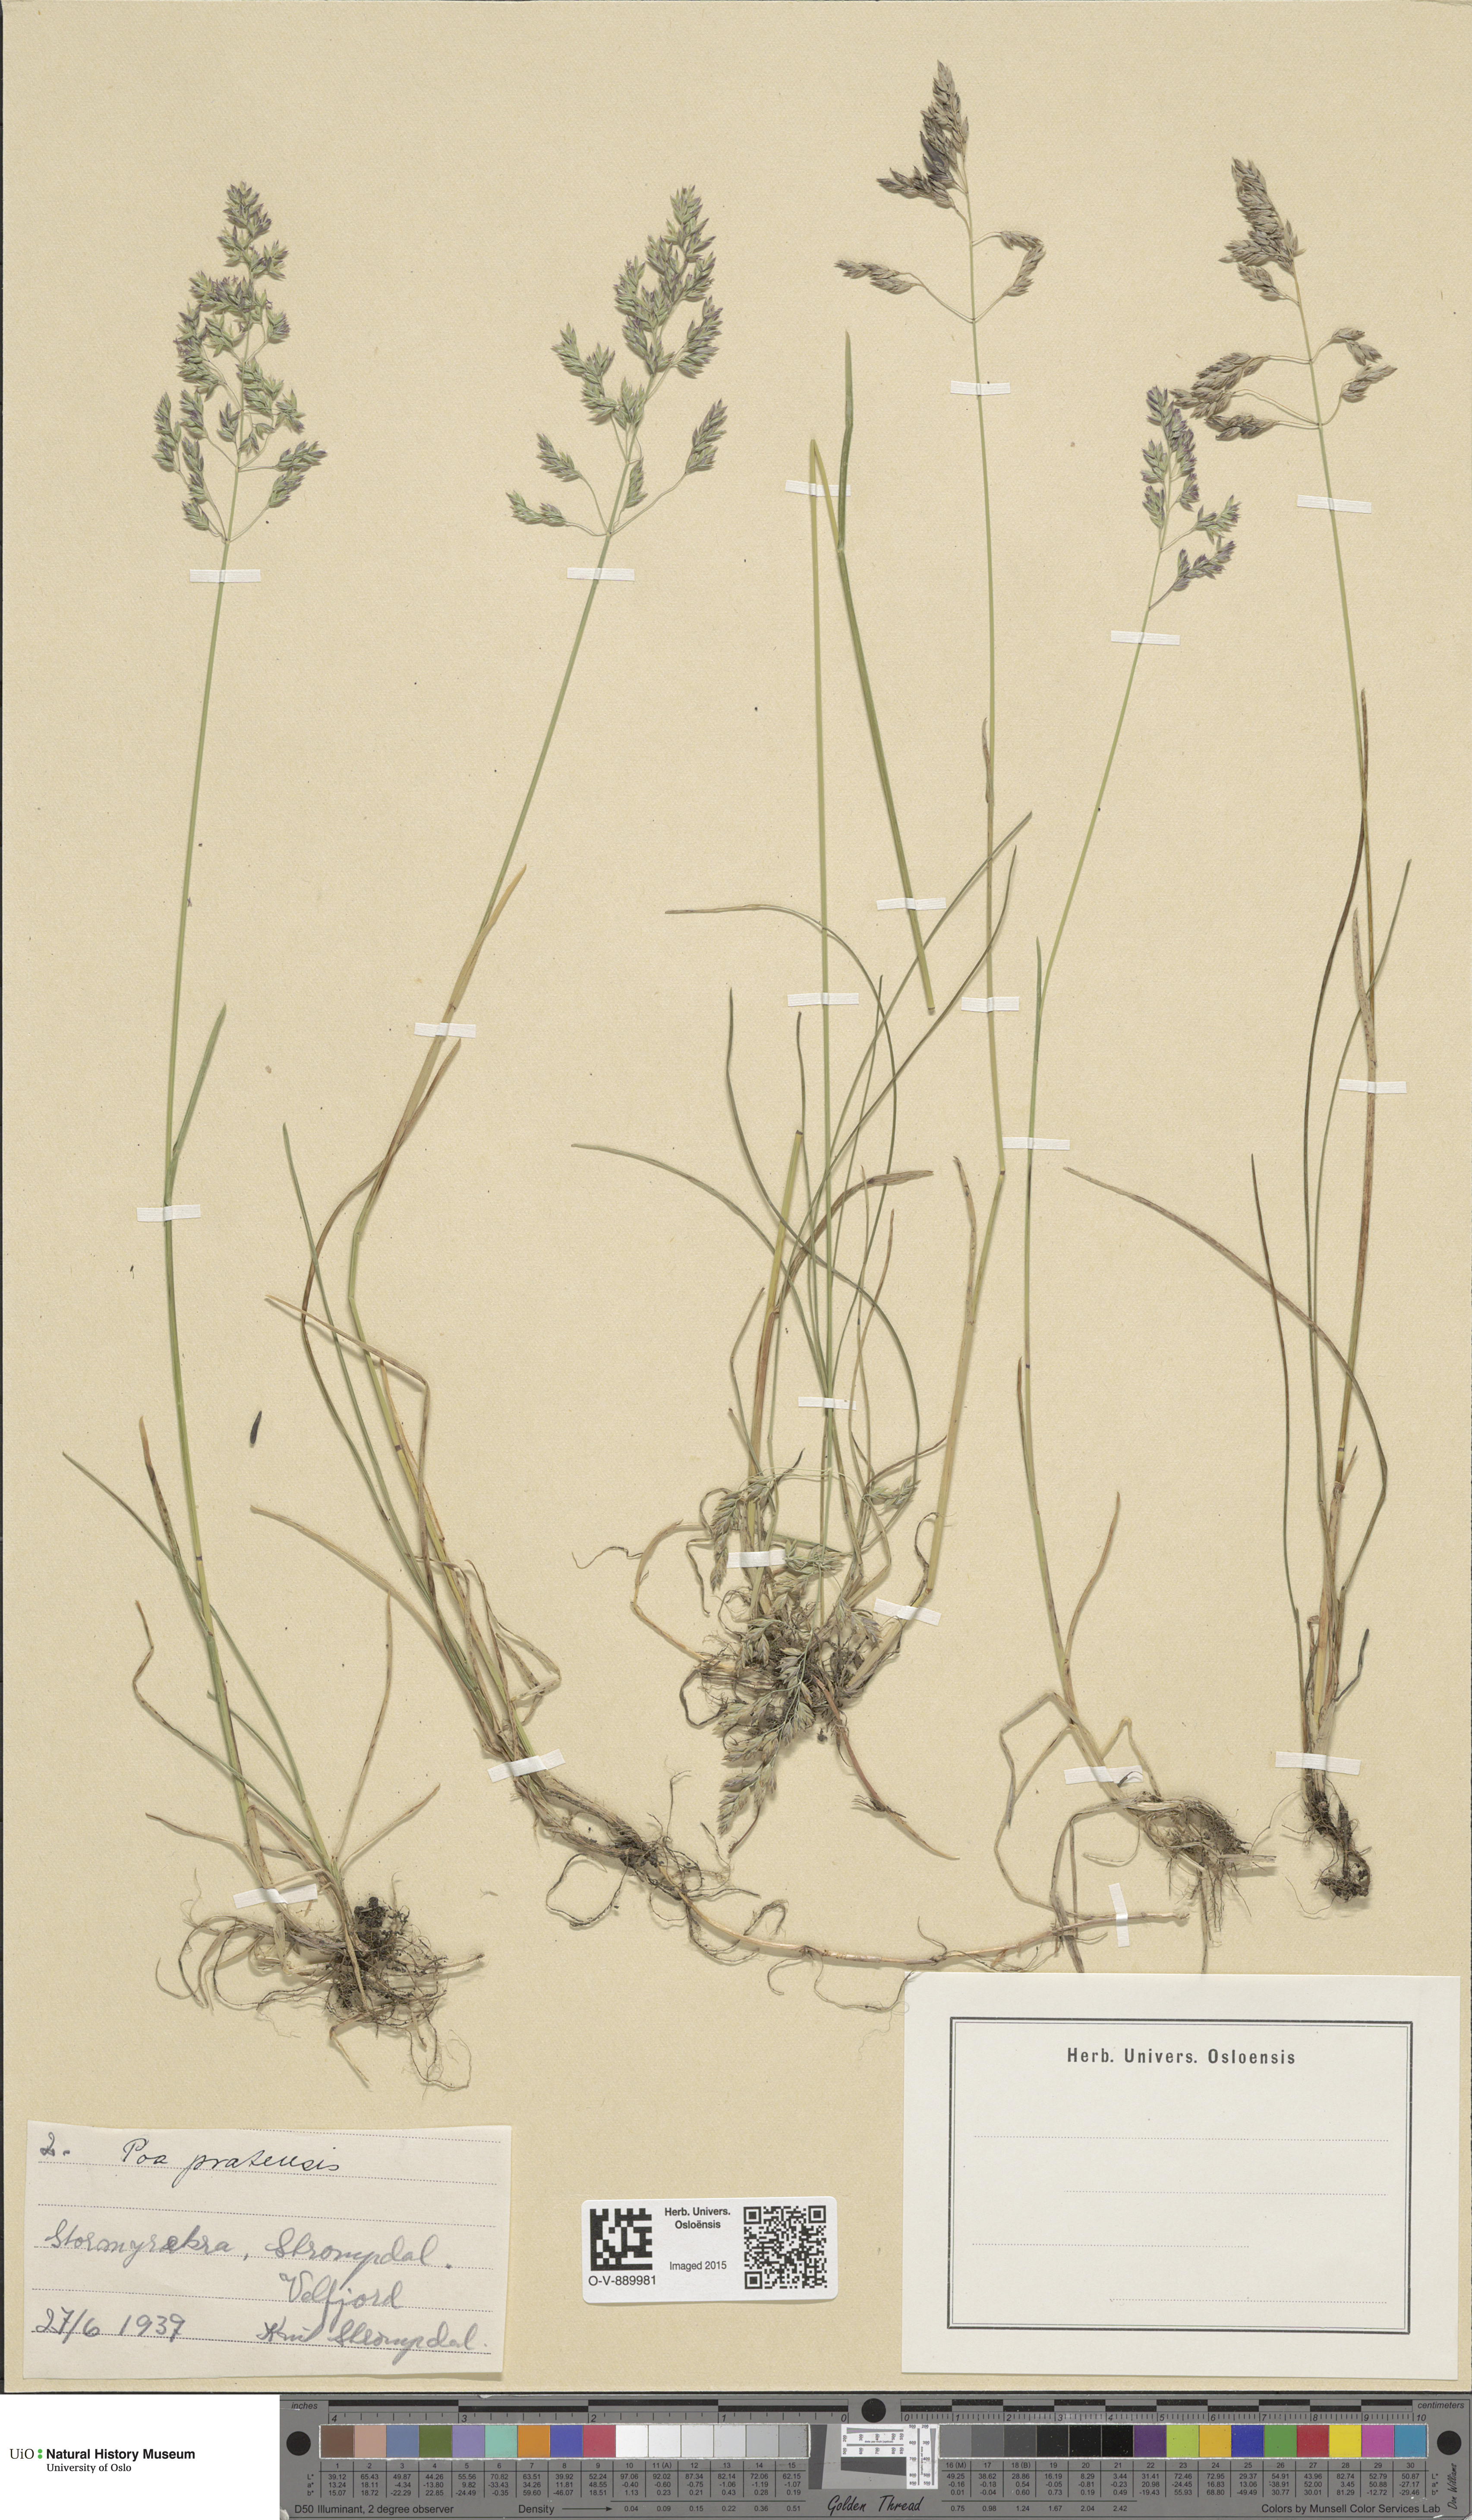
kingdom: Plantae
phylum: Tracheophyta
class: Liliopsida
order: Poales
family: Poaceae
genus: Poa
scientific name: Poa pratensis
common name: Kentucky bluegrass
